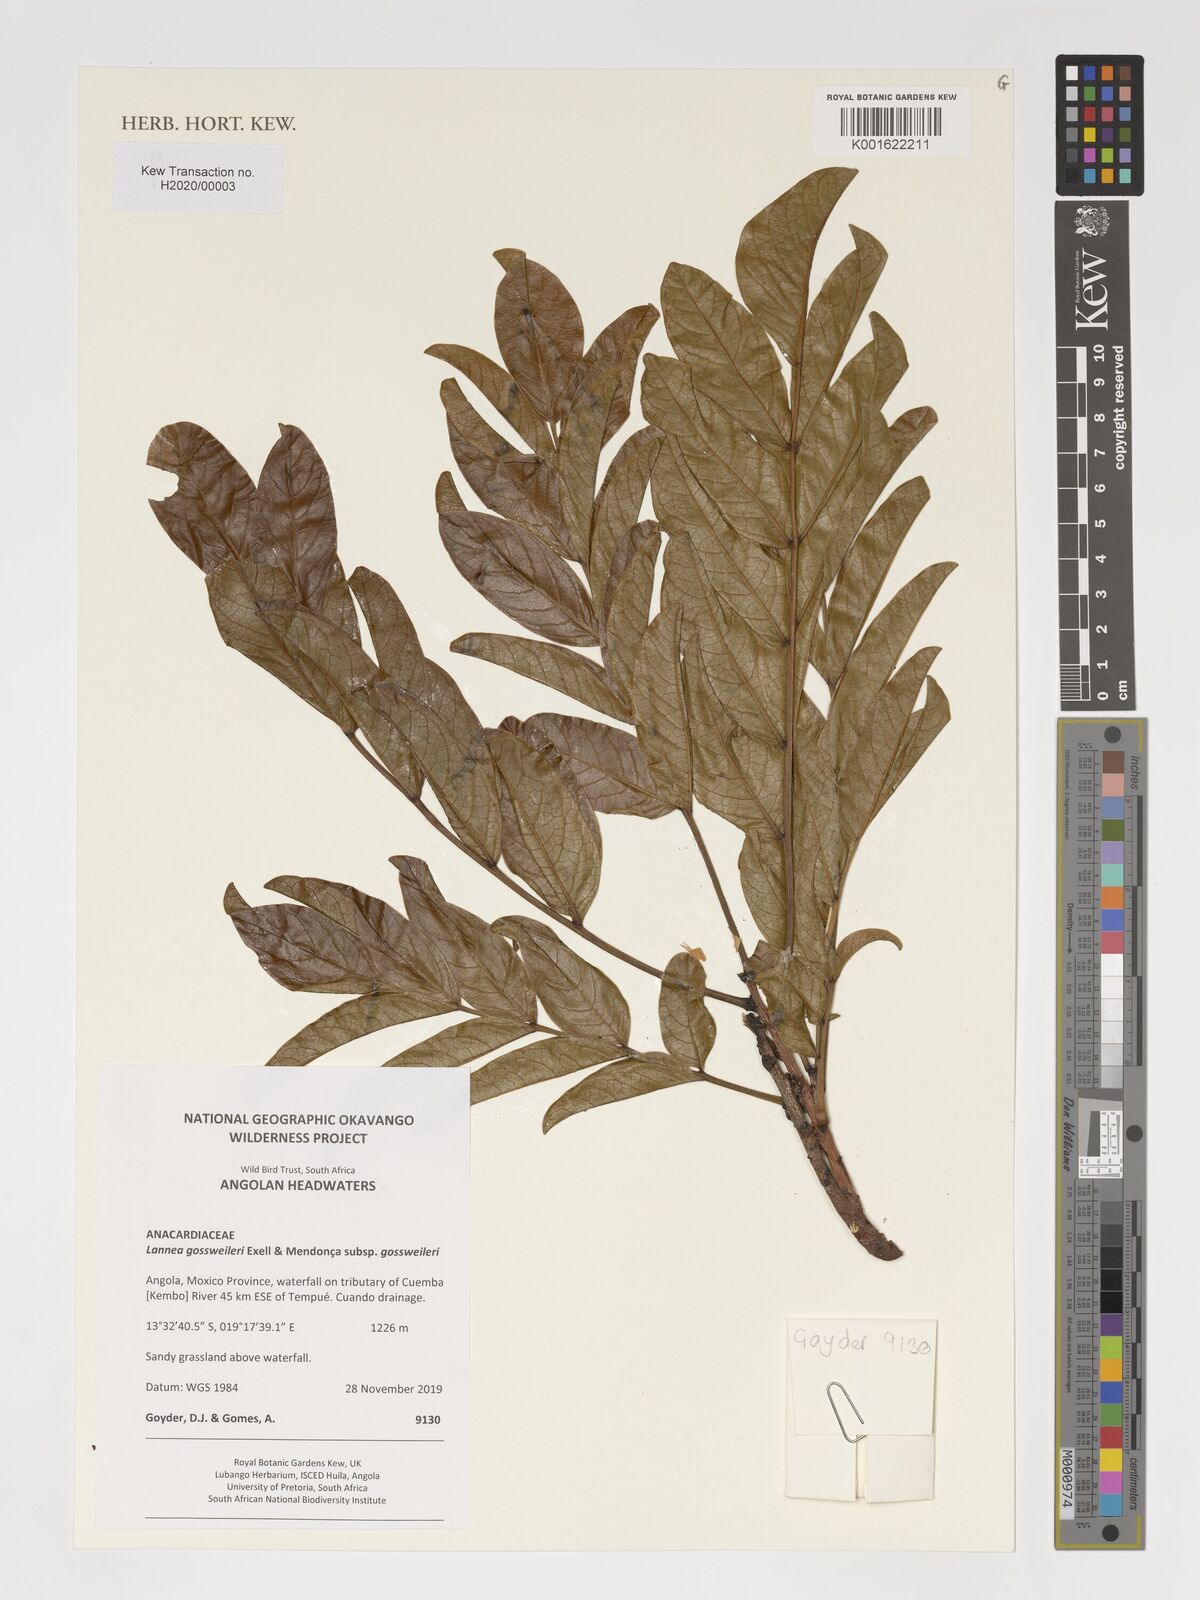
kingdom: Plantae
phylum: Tracheophyta
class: Magnoliopsida
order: Sapindales
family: Anacardiaceae
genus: Lannea
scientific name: Lannea gossweileri
